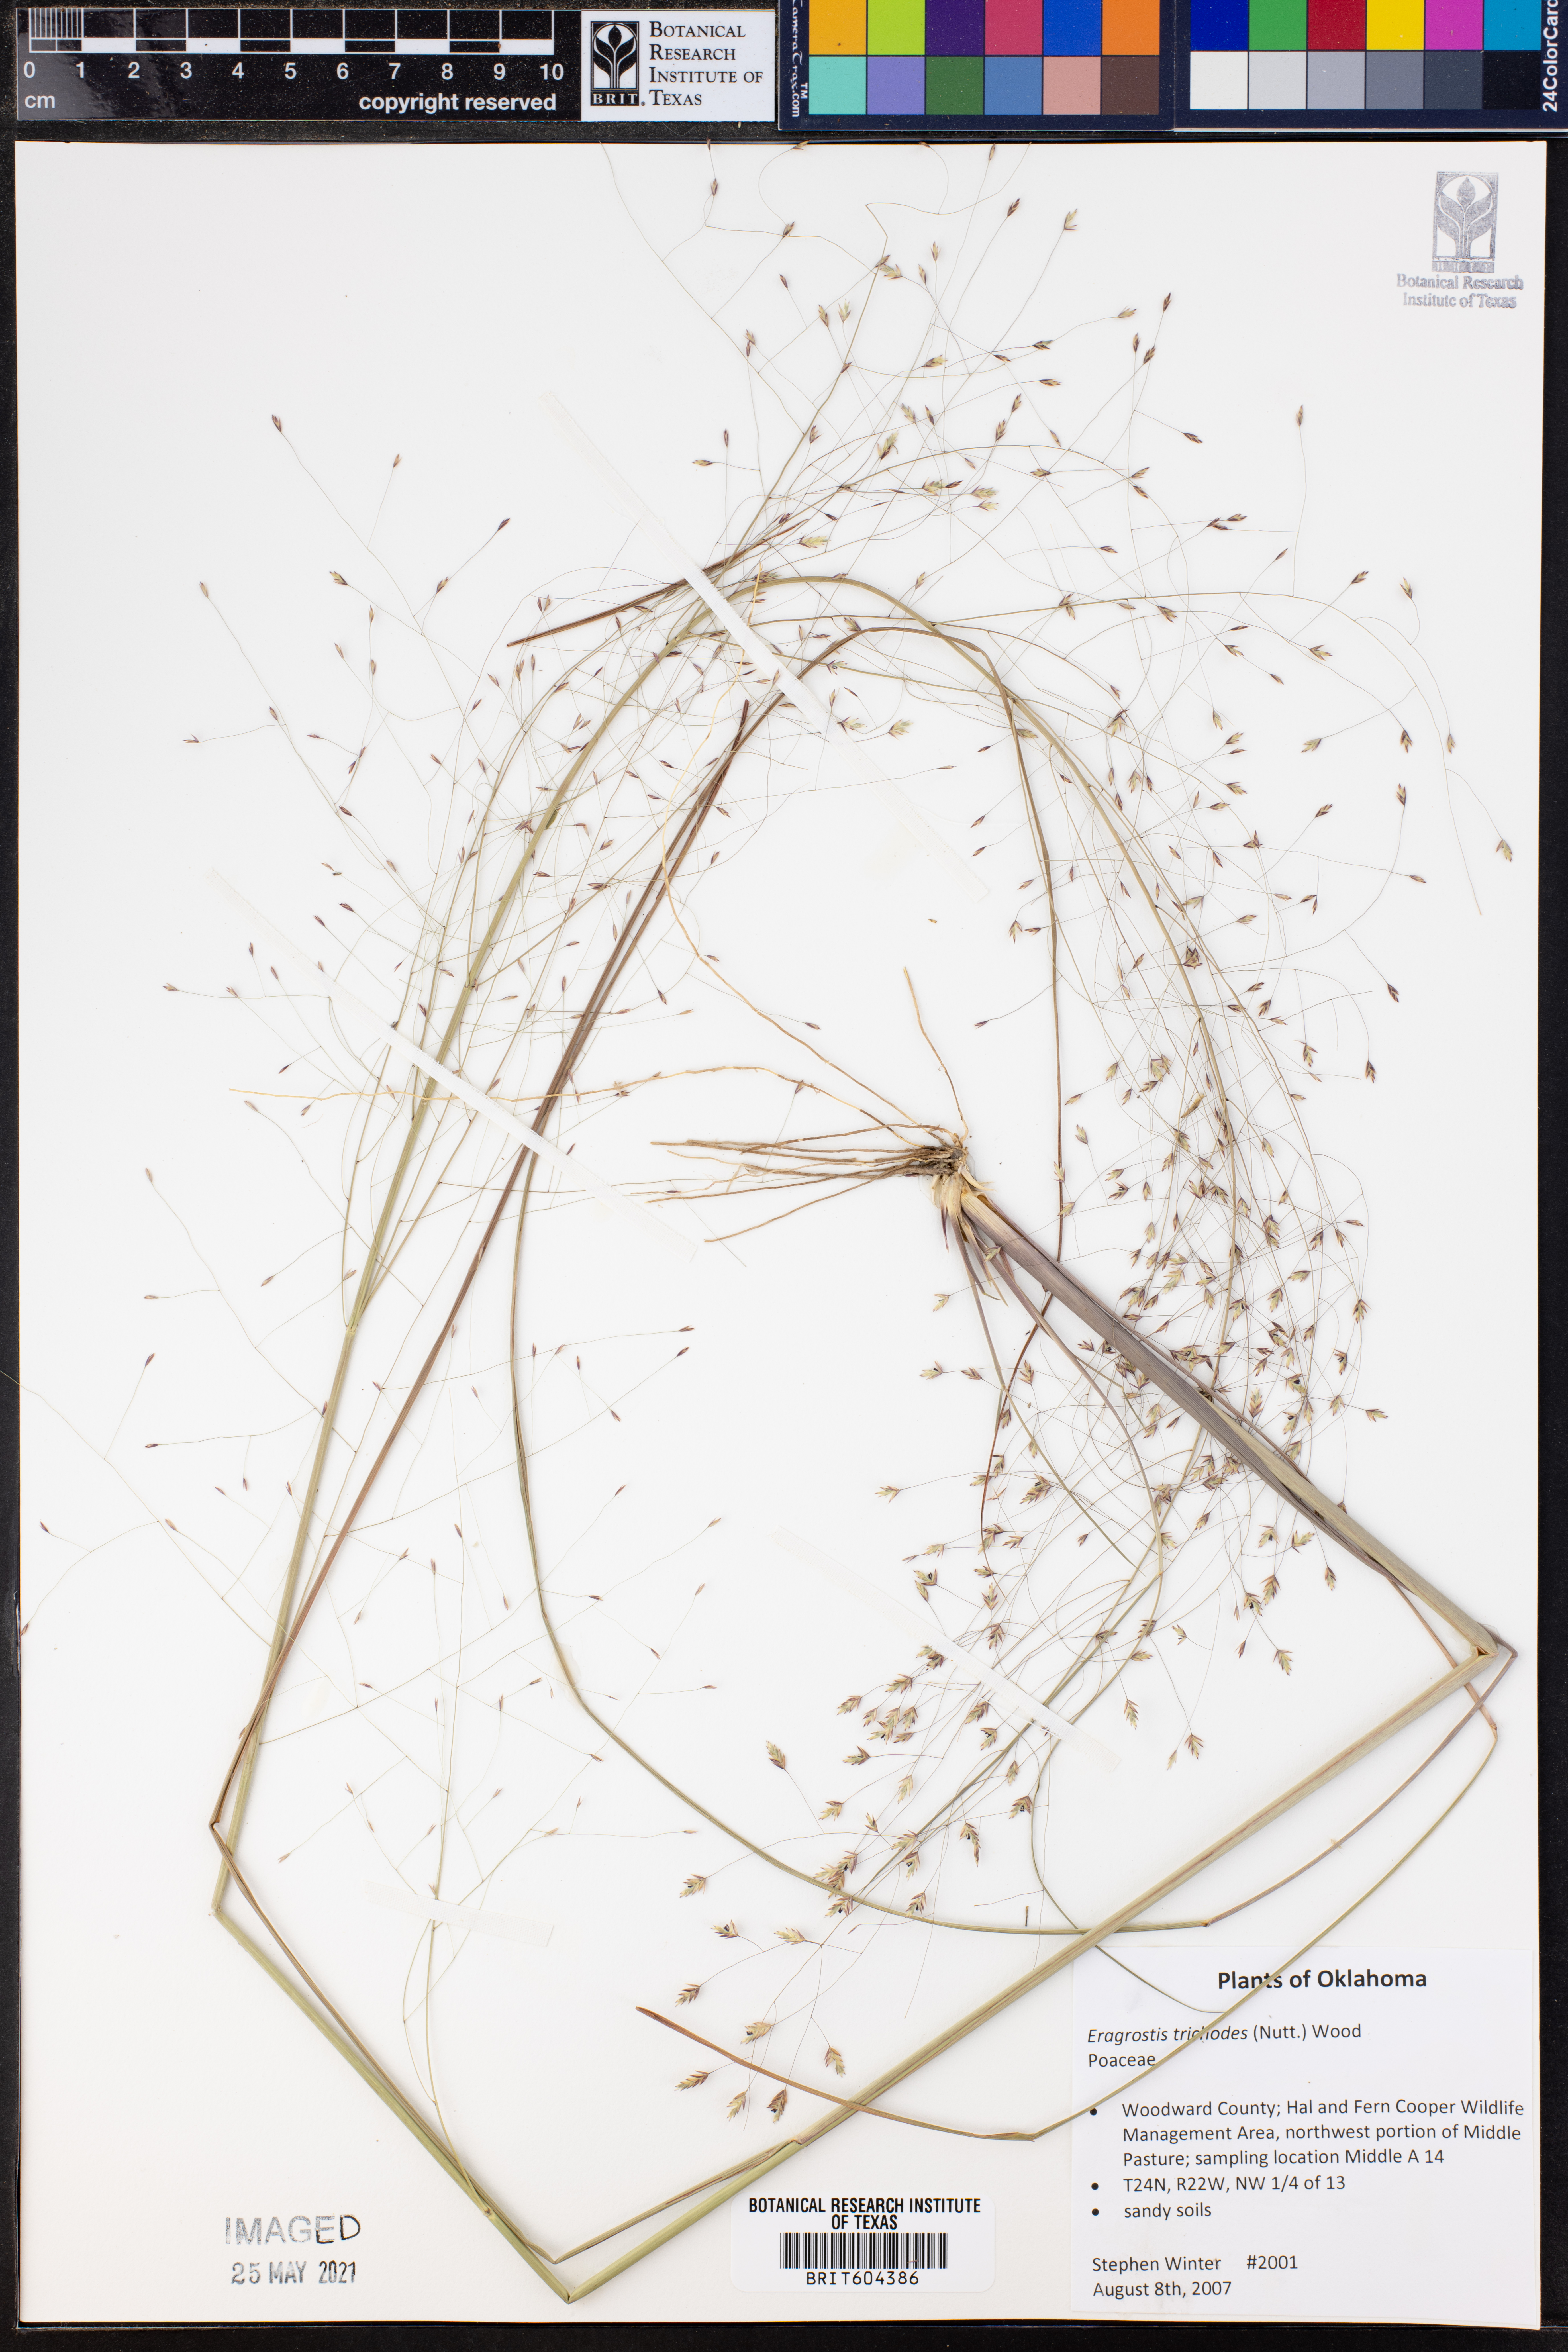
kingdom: Plantae
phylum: Tracheophyta
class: Liliopsida
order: Poales
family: Poaceae
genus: Eragrostis
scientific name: Eragrostis trichodes
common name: Sand love grass
